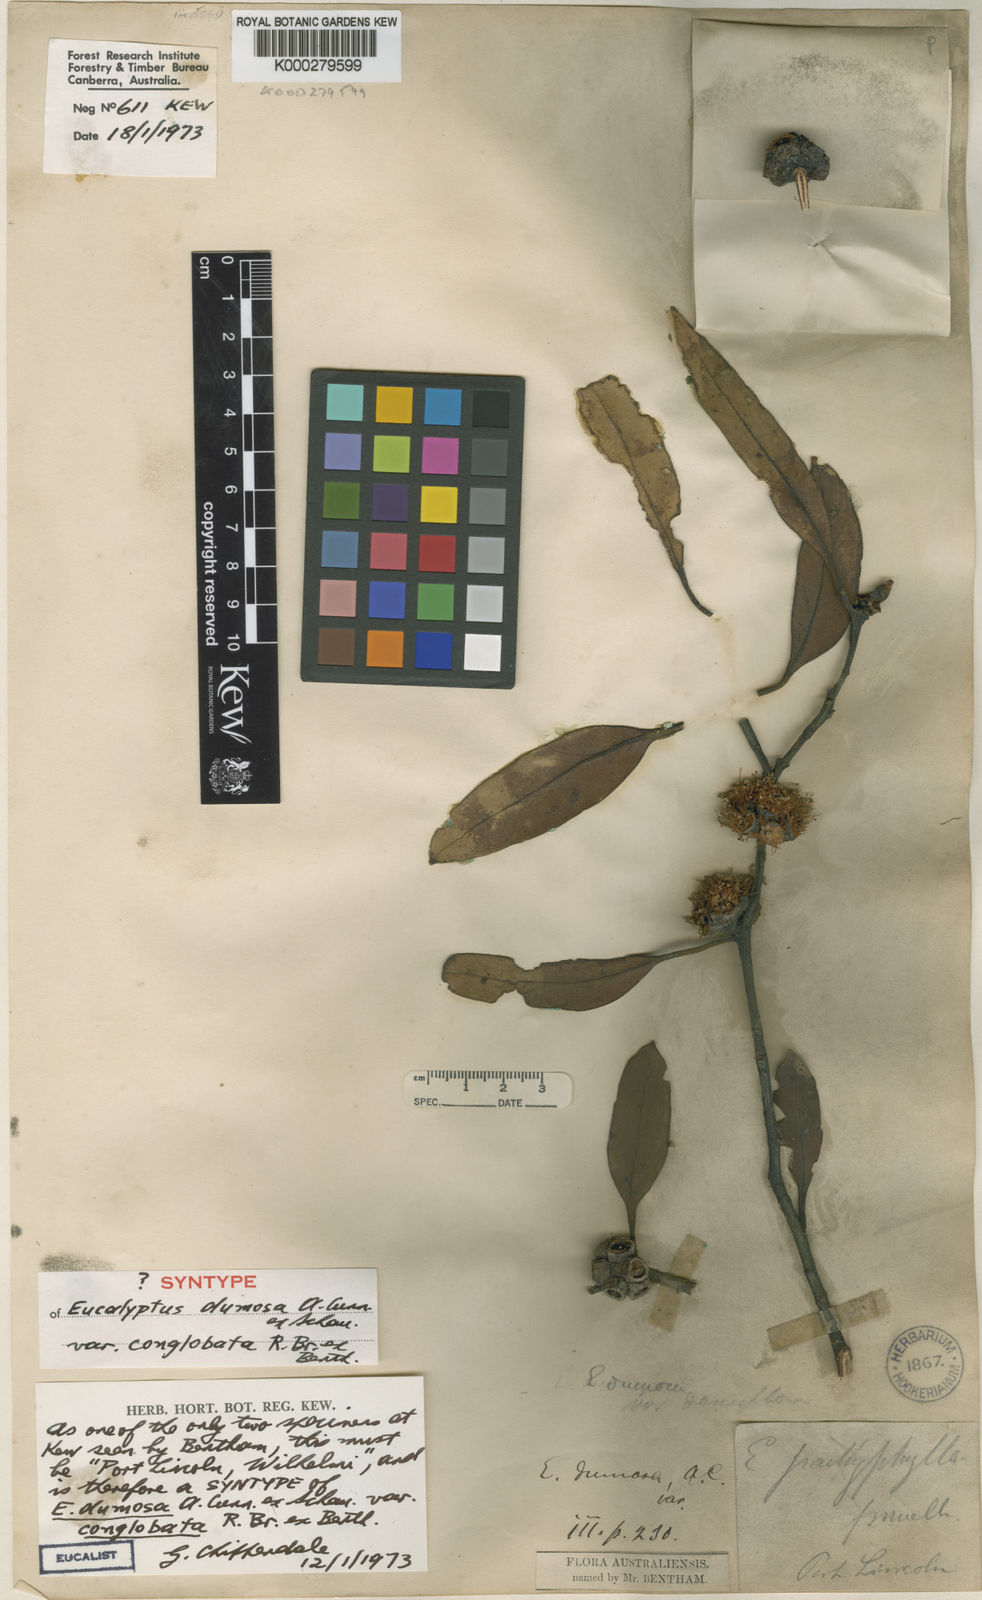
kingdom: Plantae
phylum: Tracheophyta
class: Magnoliopsida
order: Myrtales
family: Myrtaceae
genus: Eucalyptus
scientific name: Eucalyptus conglobata
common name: Port lincoln mallee
